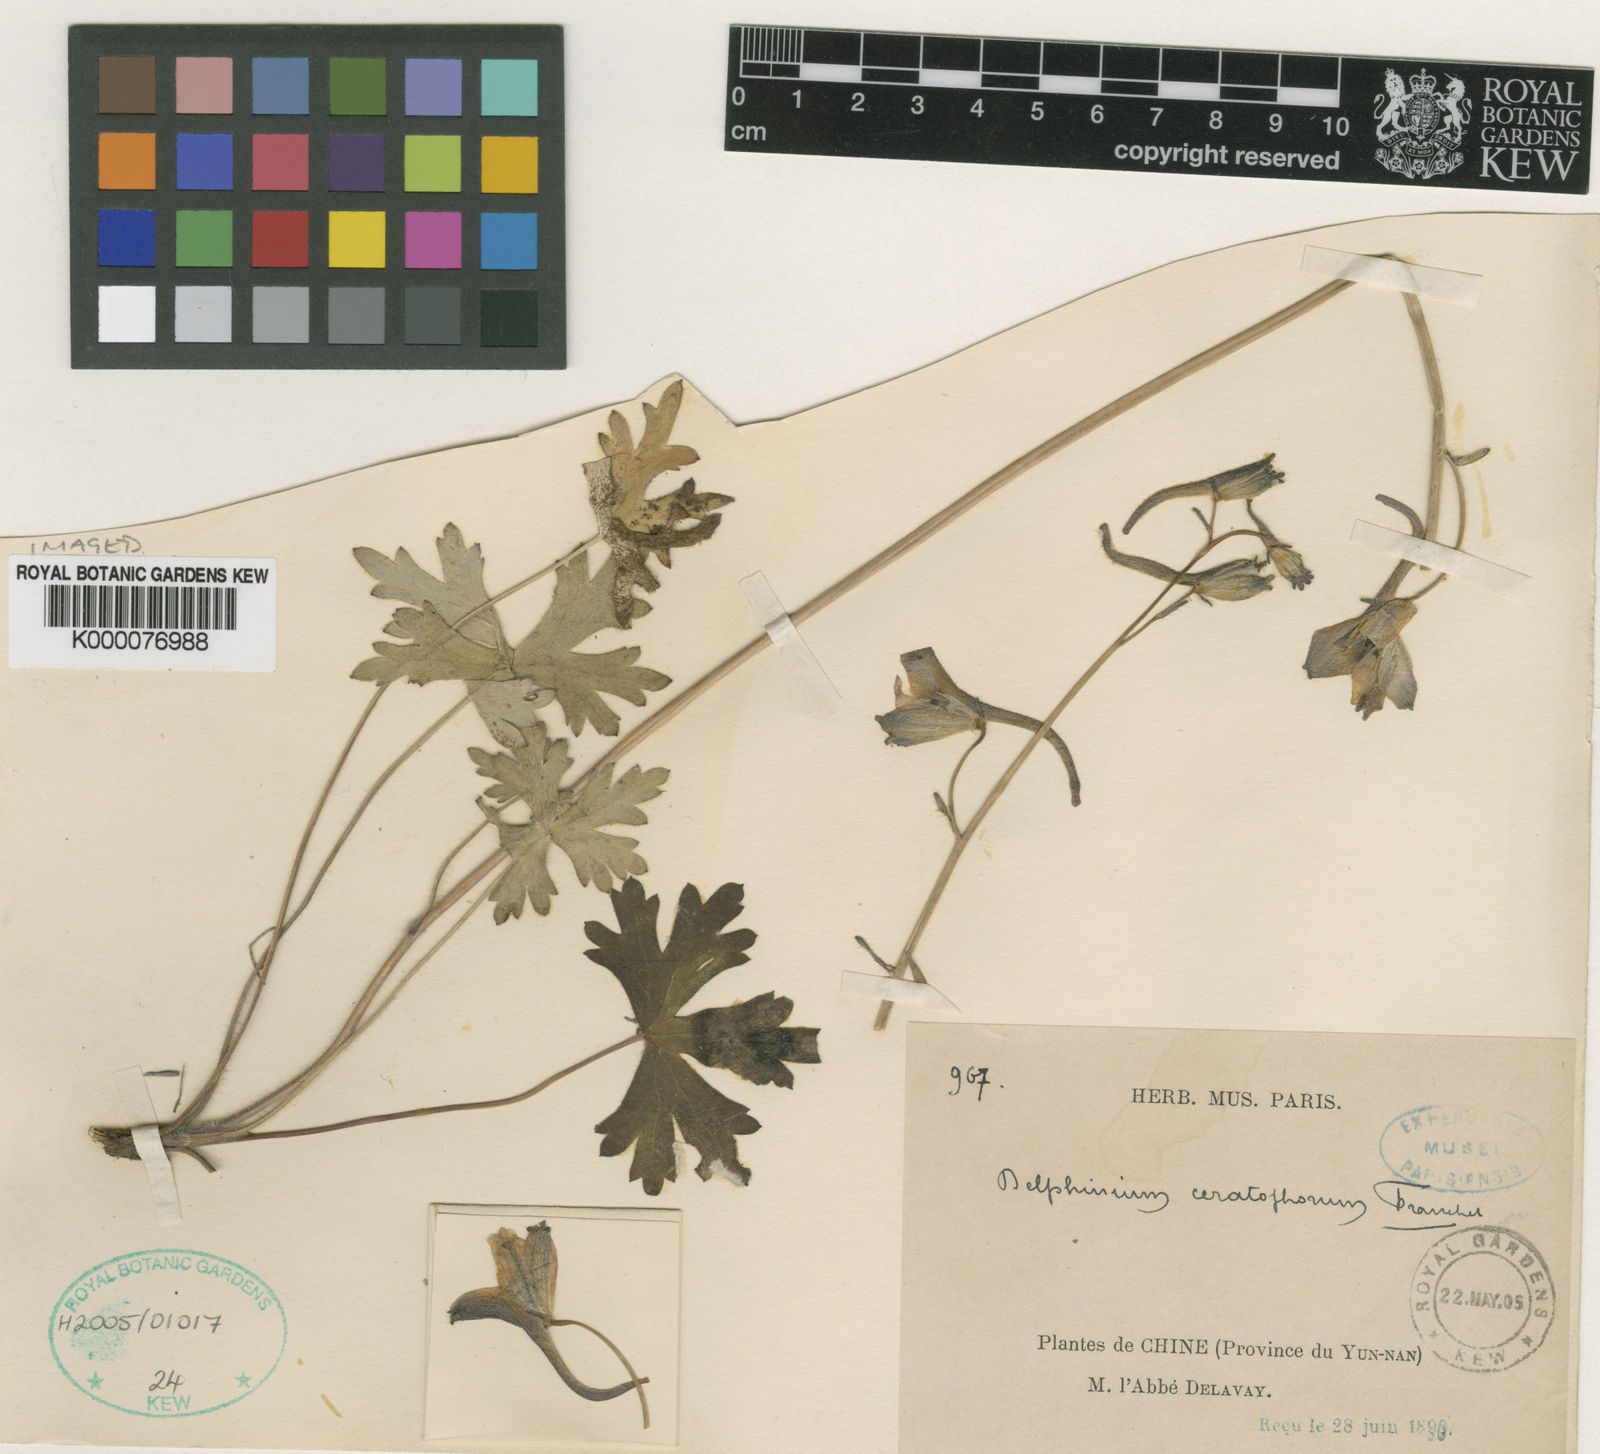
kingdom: Plantae
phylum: Tracheophyta
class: Magnoliopsida
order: Ranunculales
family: Ranunculaceae
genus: Delphinium
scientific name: Delphinium ceratophorum
